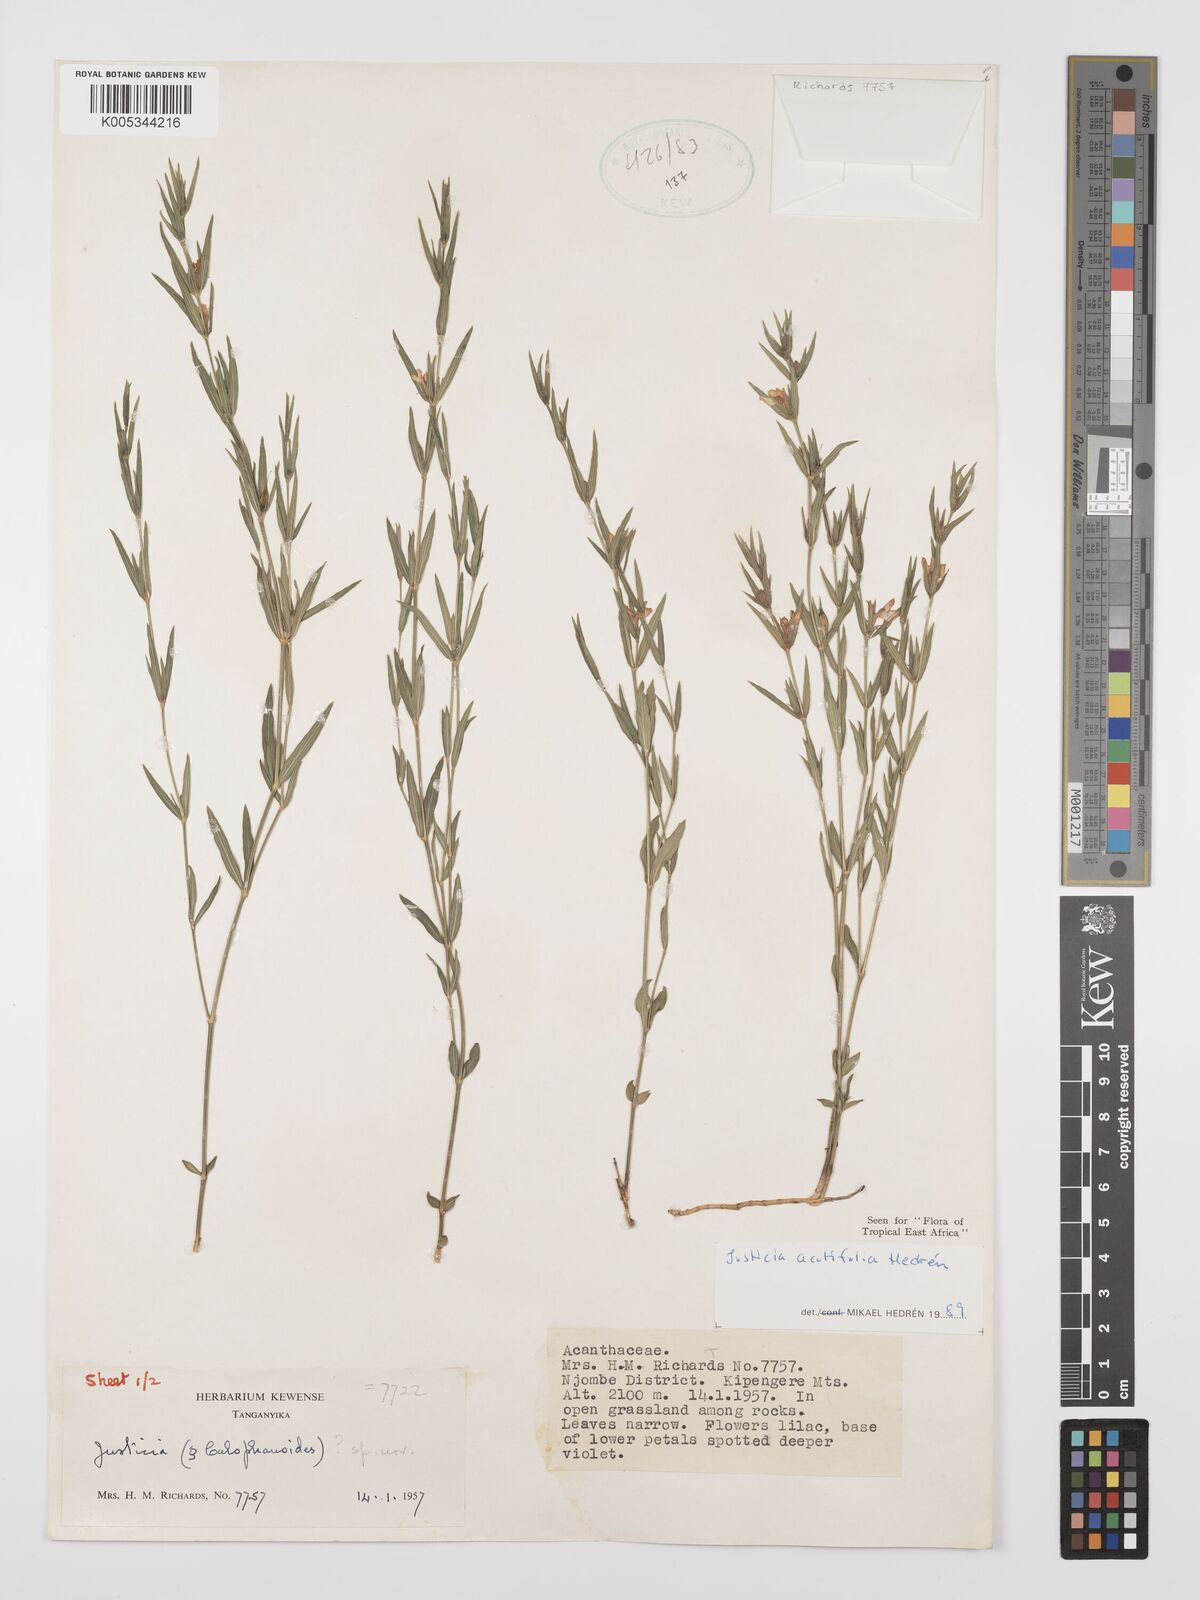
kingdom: Plantae
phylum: Tracheophyta
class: Magnoliopsida
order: Lamiales
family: Acanthaceae
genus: Justicia
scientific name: Justicia acutifolia
